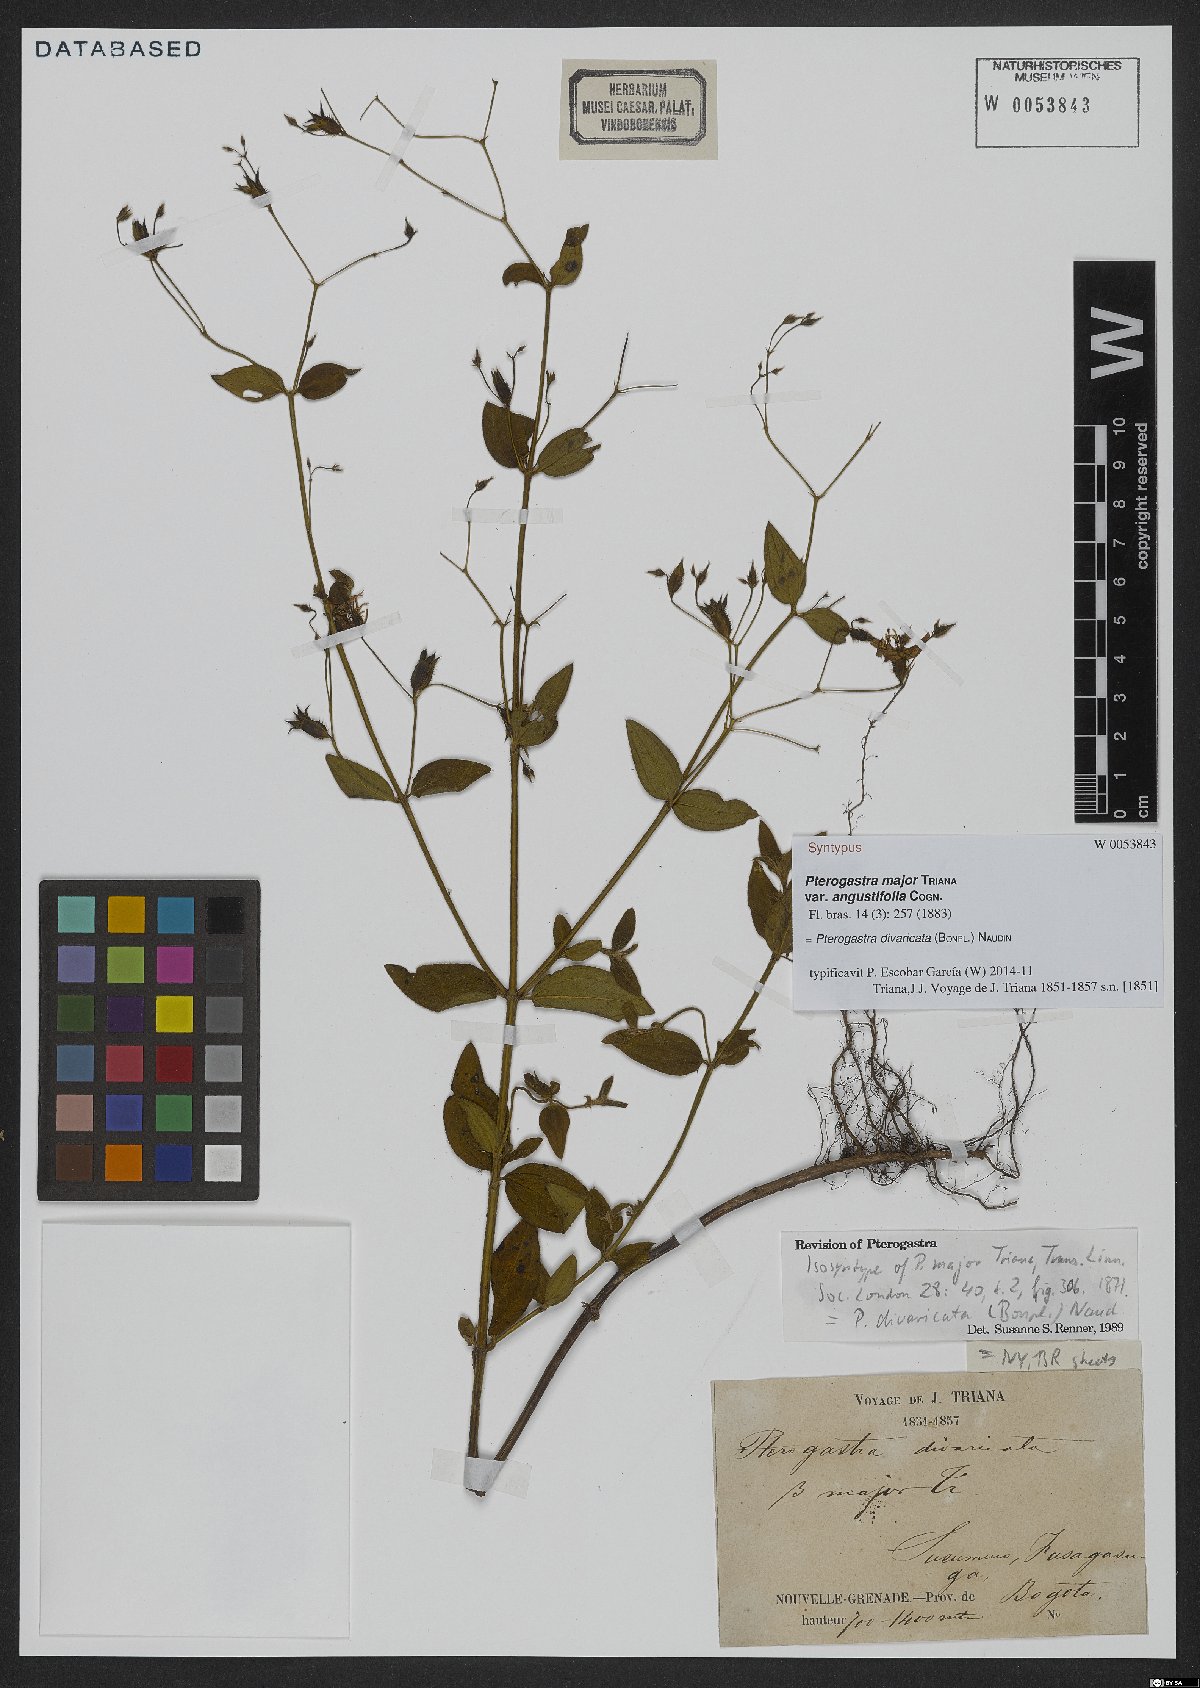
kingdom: Plantae
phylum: Tracheophyta
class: Magnoliopsida
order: Myrtales
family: Melastomataceae
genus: Pterogastra
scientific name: Pterogastra divaricata
